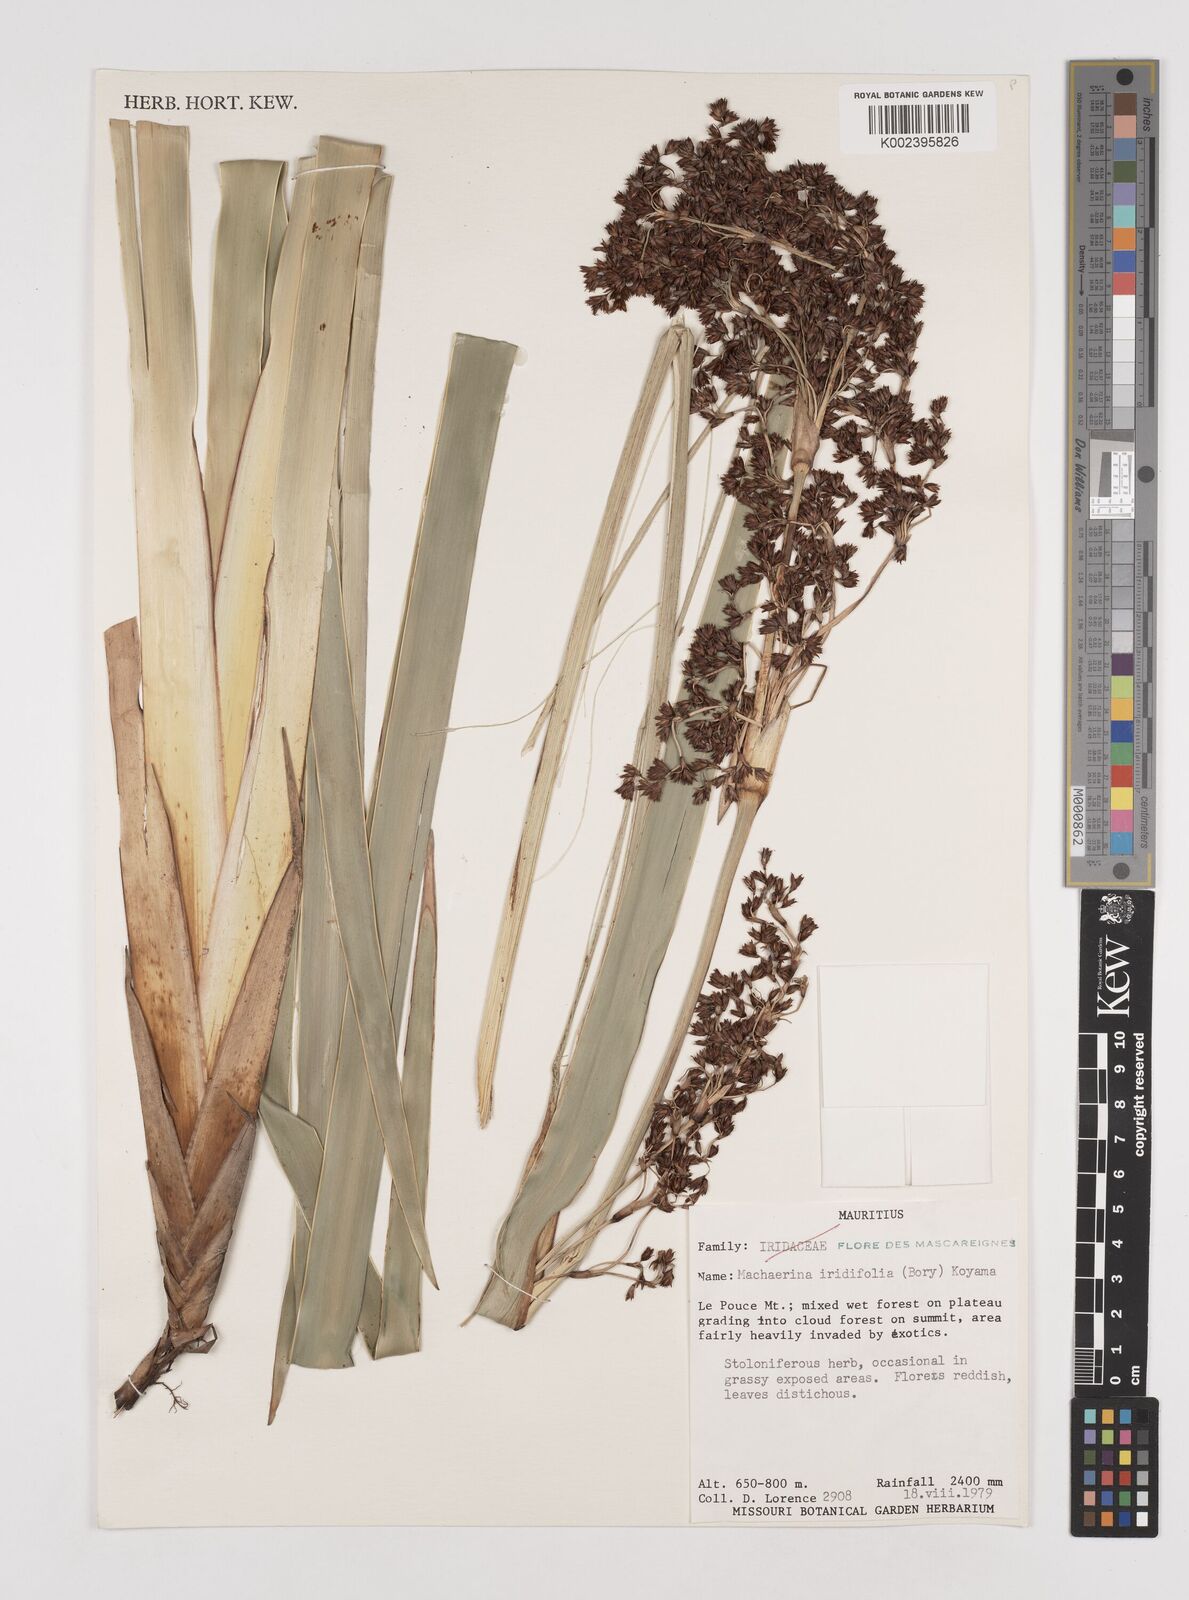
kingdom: Plantae
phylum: Tracheophyta
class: Liliopsida
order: Poales
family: Cyperaceae
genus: Machaerina
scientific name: Machaerina iridifolia
